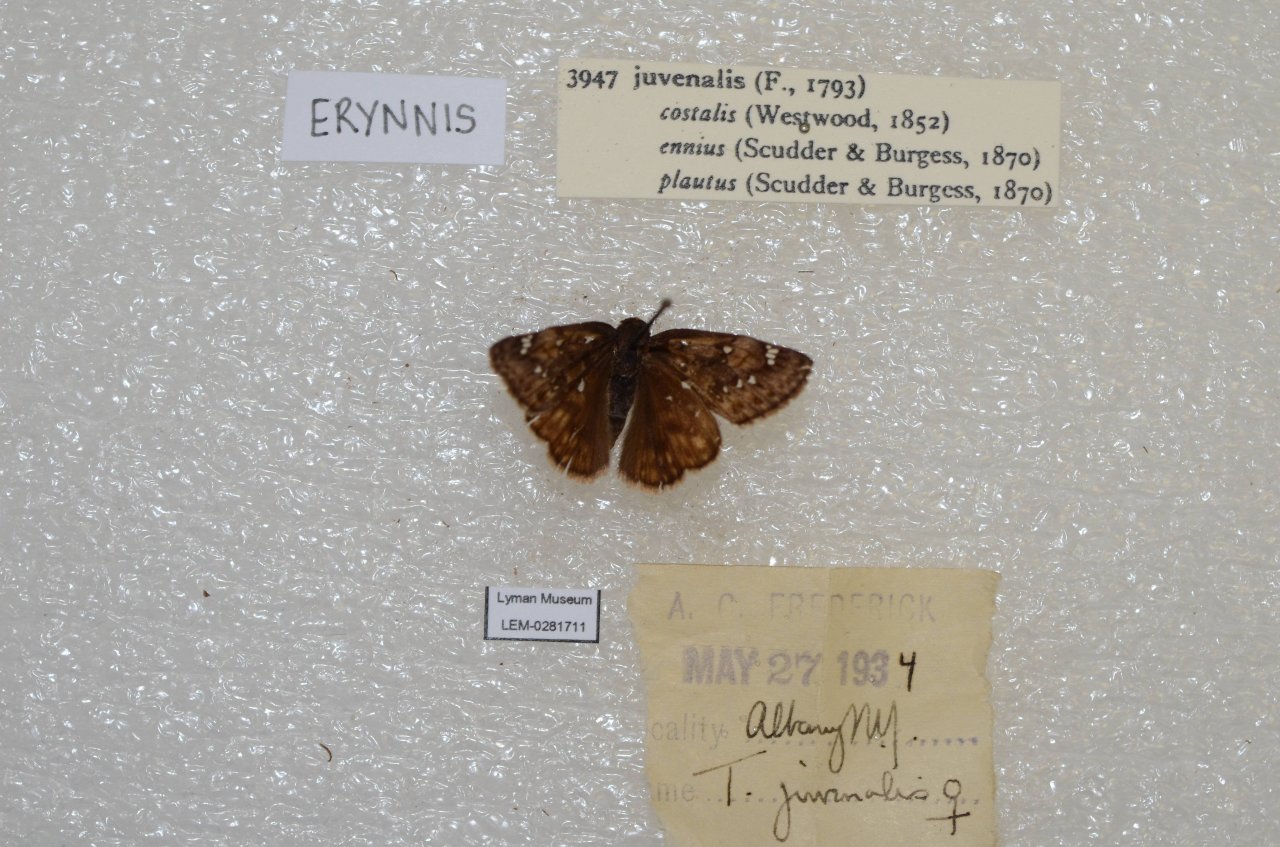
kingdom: Animalia
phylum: Arthropoda
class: Insecta
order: Lepidoptera
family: Hesperiidae
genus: Gesta
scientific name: Gesta
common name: Juvenal's Duskywing
